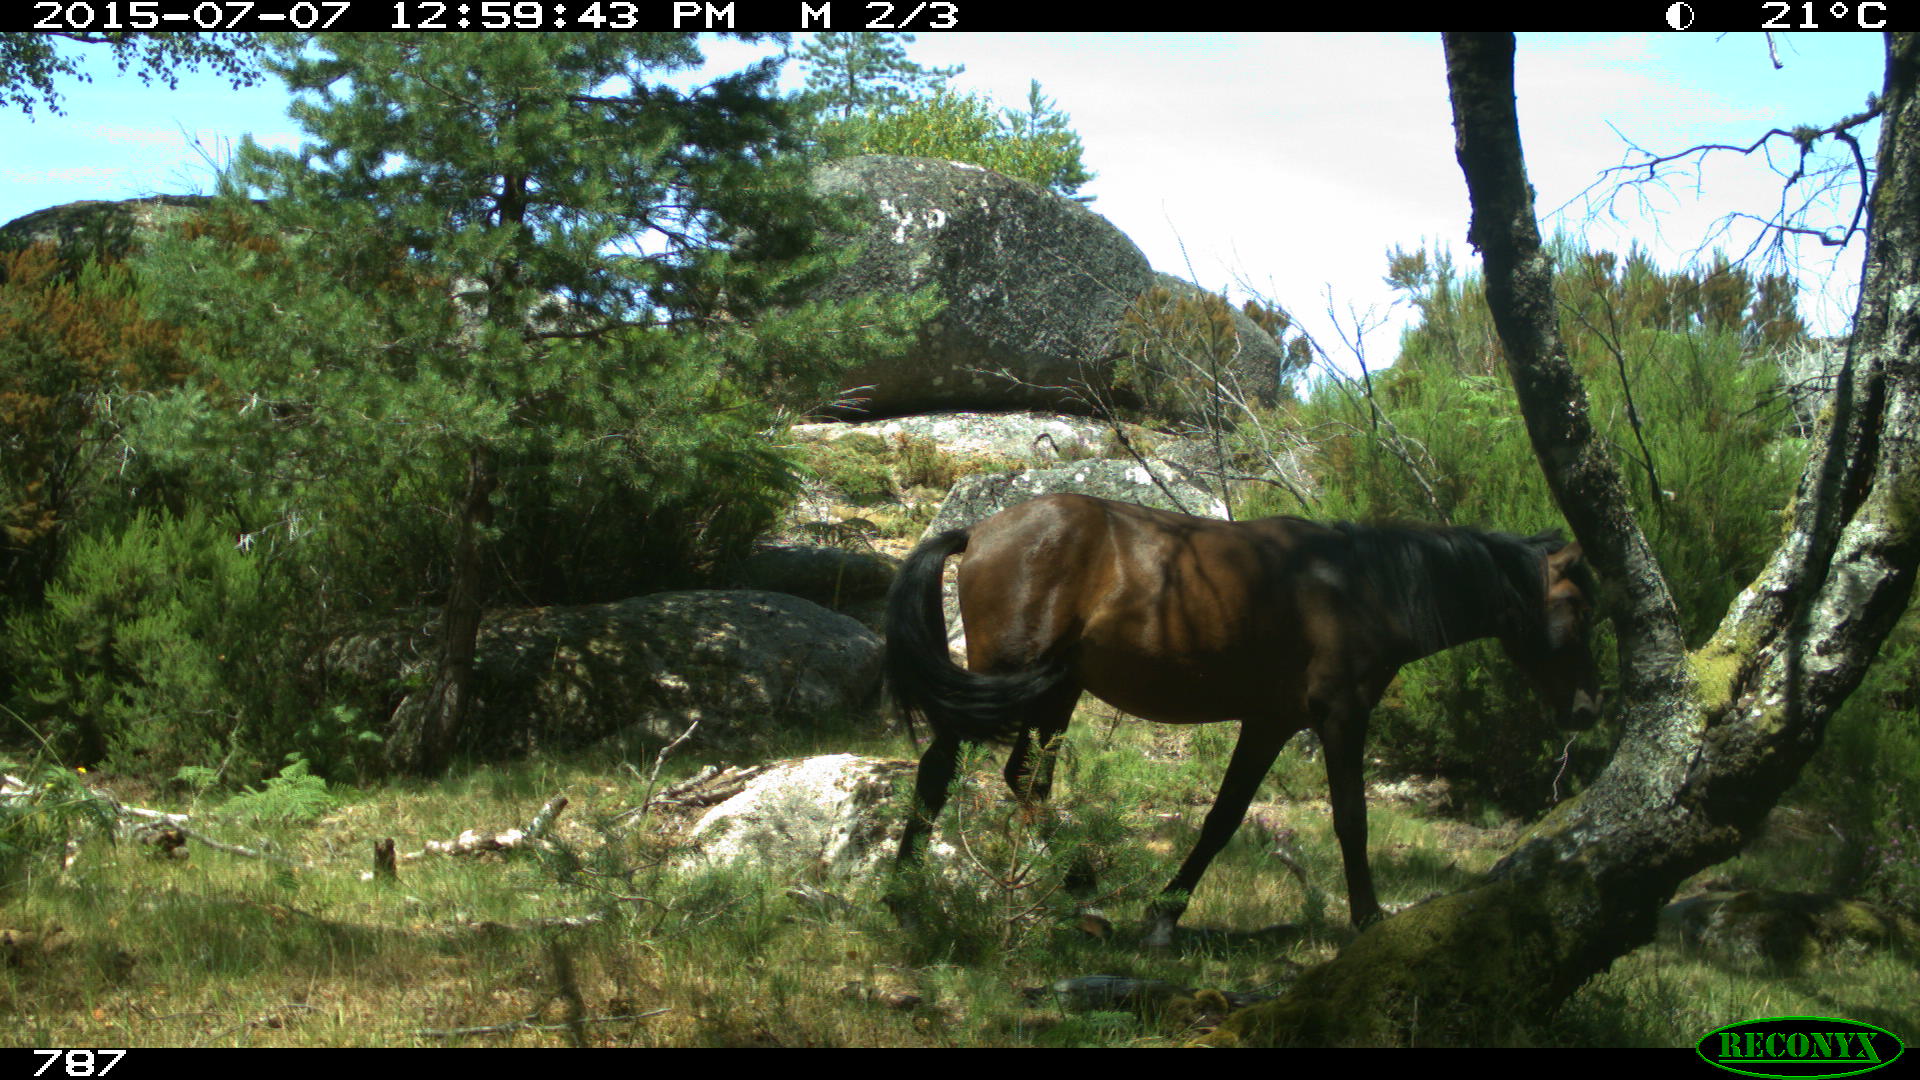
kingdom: Animalia
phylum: Chordata
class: Mammalia
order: Perissodactyla
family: Equidae
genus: Equus
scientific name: Equus caballus
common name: Horse
